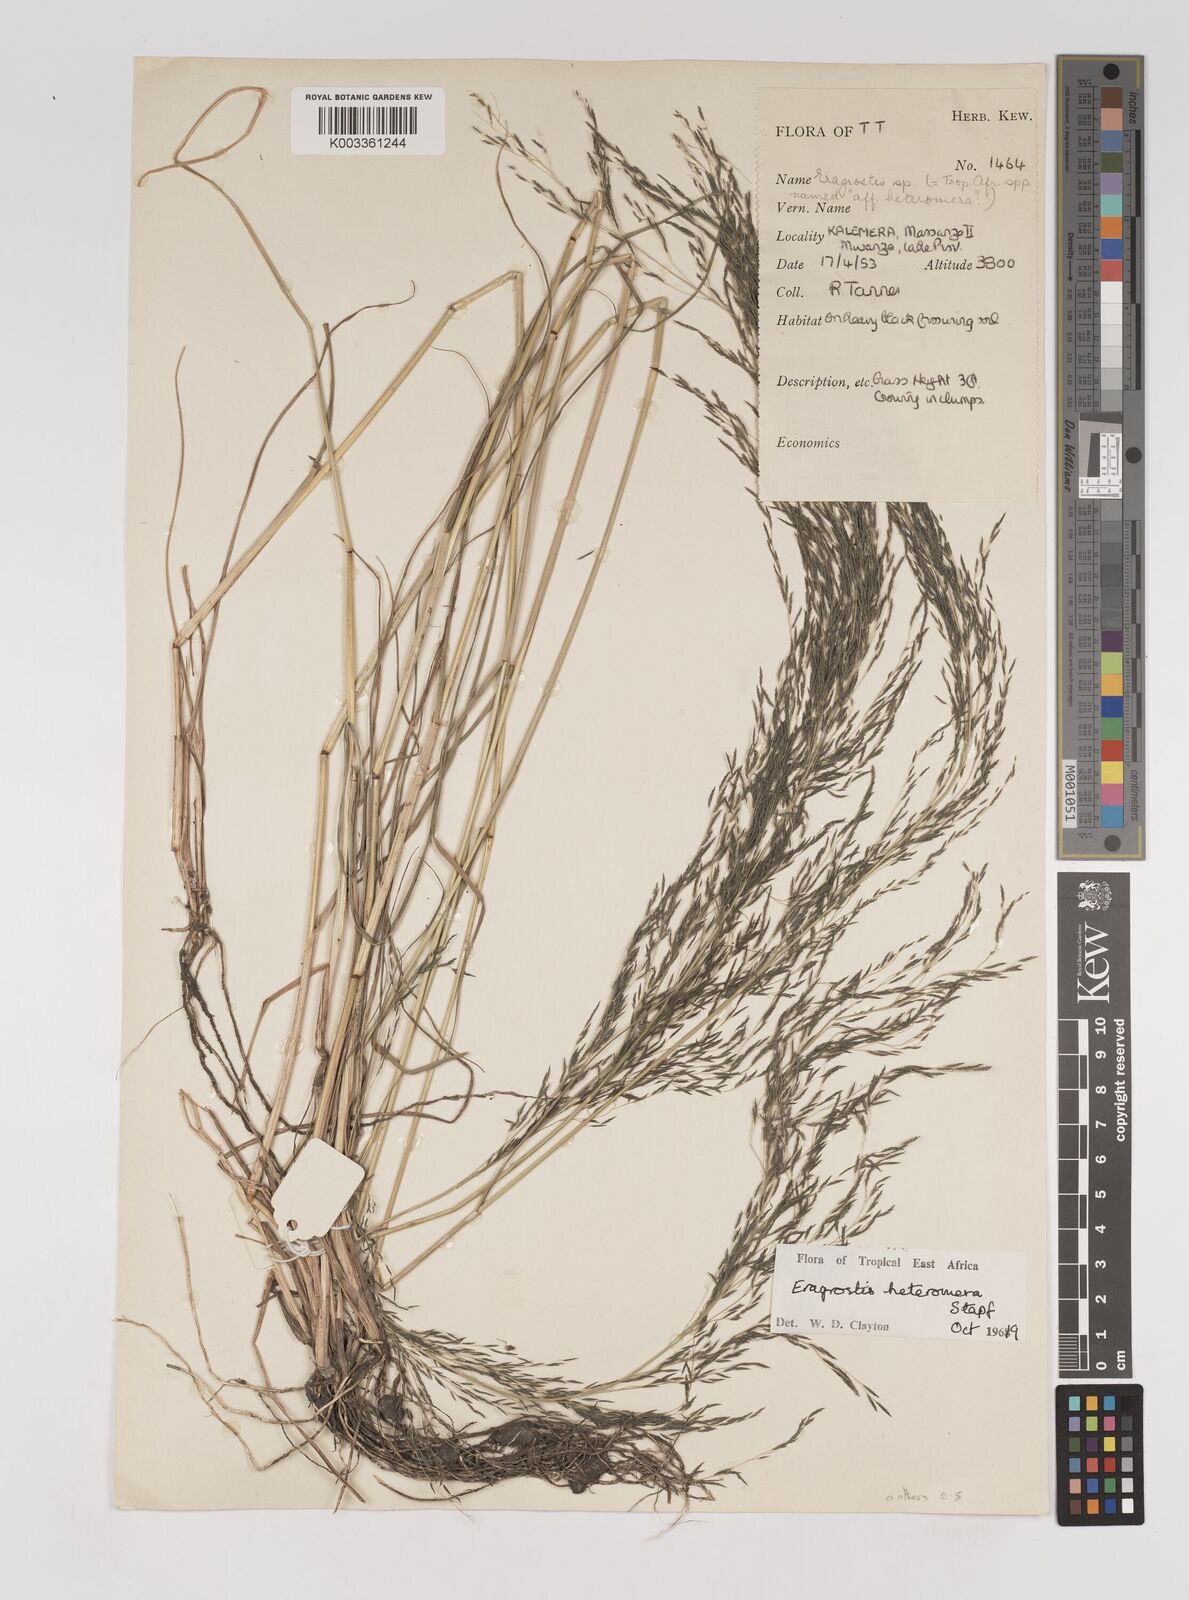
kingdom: Plantae
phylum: Tracheophyta
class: Liliopsida
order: Poales
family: Poaceae
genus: Eragrostis
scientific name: Eragrostis heteromera
